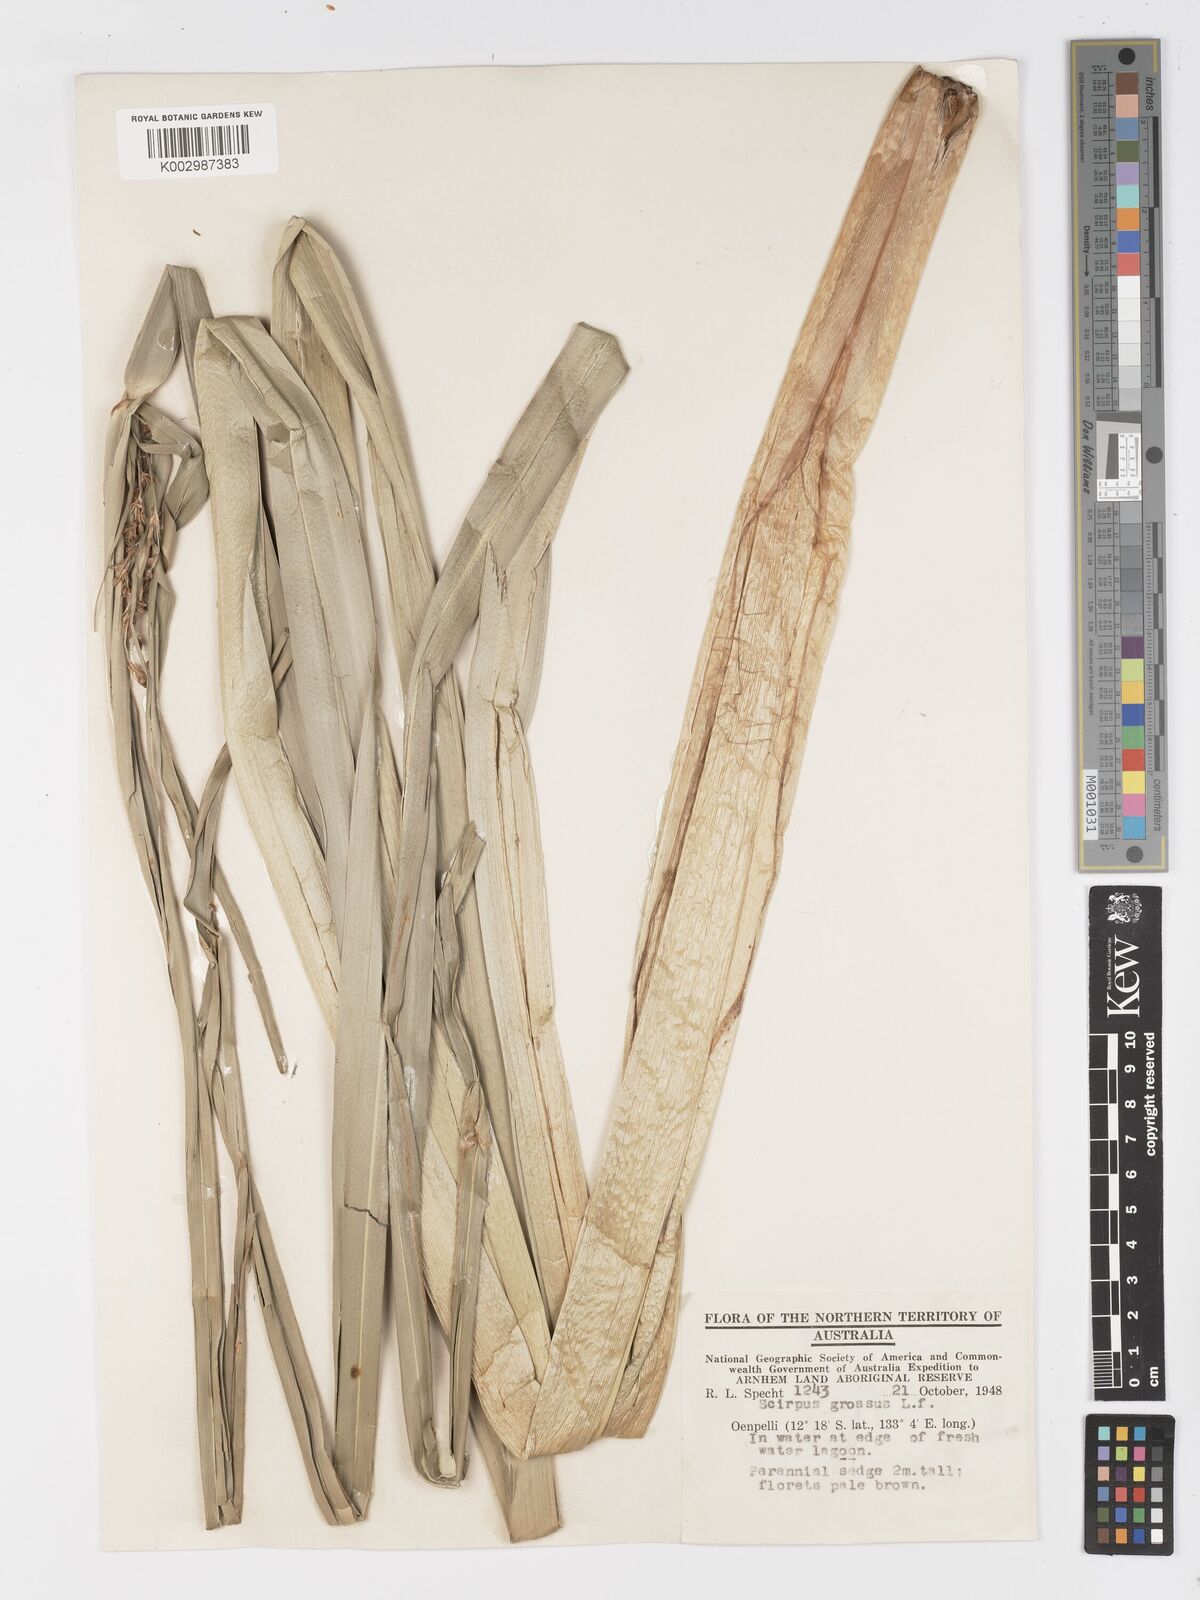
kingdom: Plantae
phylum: Tracheophyta
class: Liliopsida
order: Poales
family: Cyperaceae
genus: Actinoscirpus
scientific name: Actinoscirpus grossus
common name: Giant bur rush
